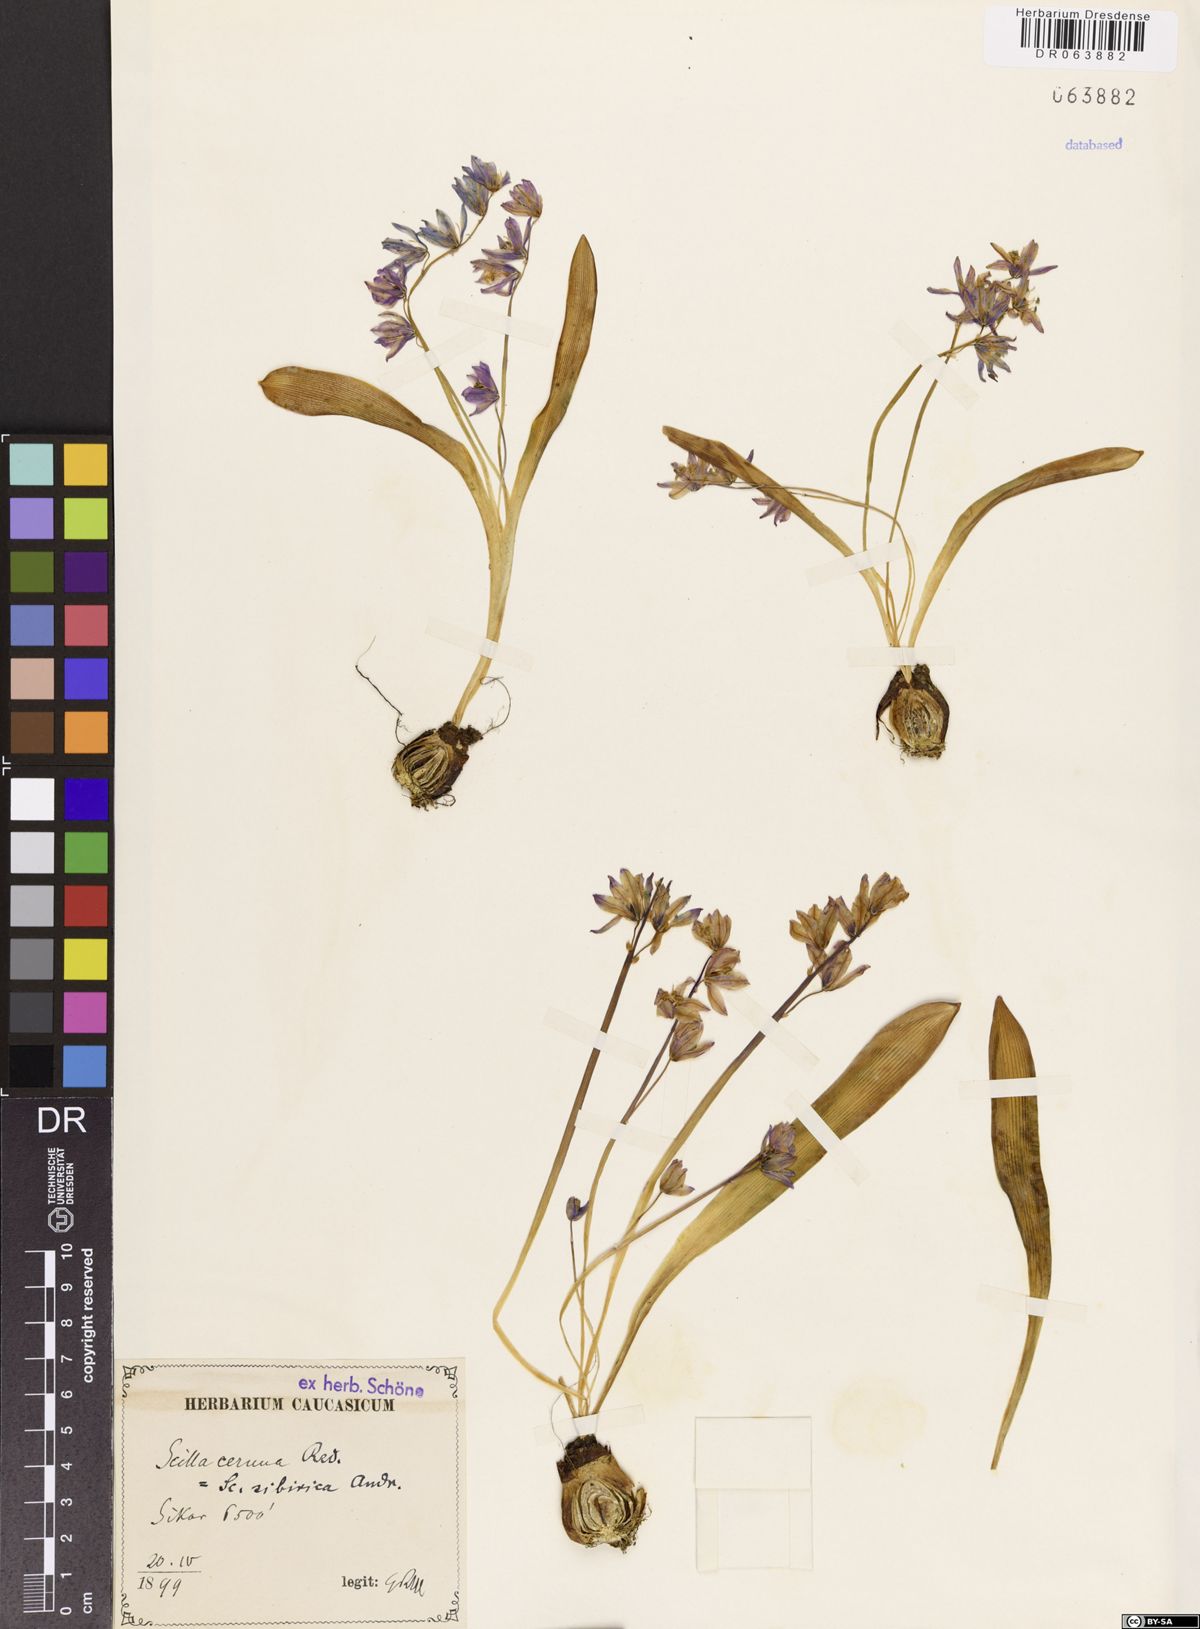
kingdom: Plantae
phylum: Tracheophyta
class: Liliopsida
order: Asparagales
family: Asparagaceae
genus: Scilla
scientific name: Scilla siberica
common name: Siberian squill
